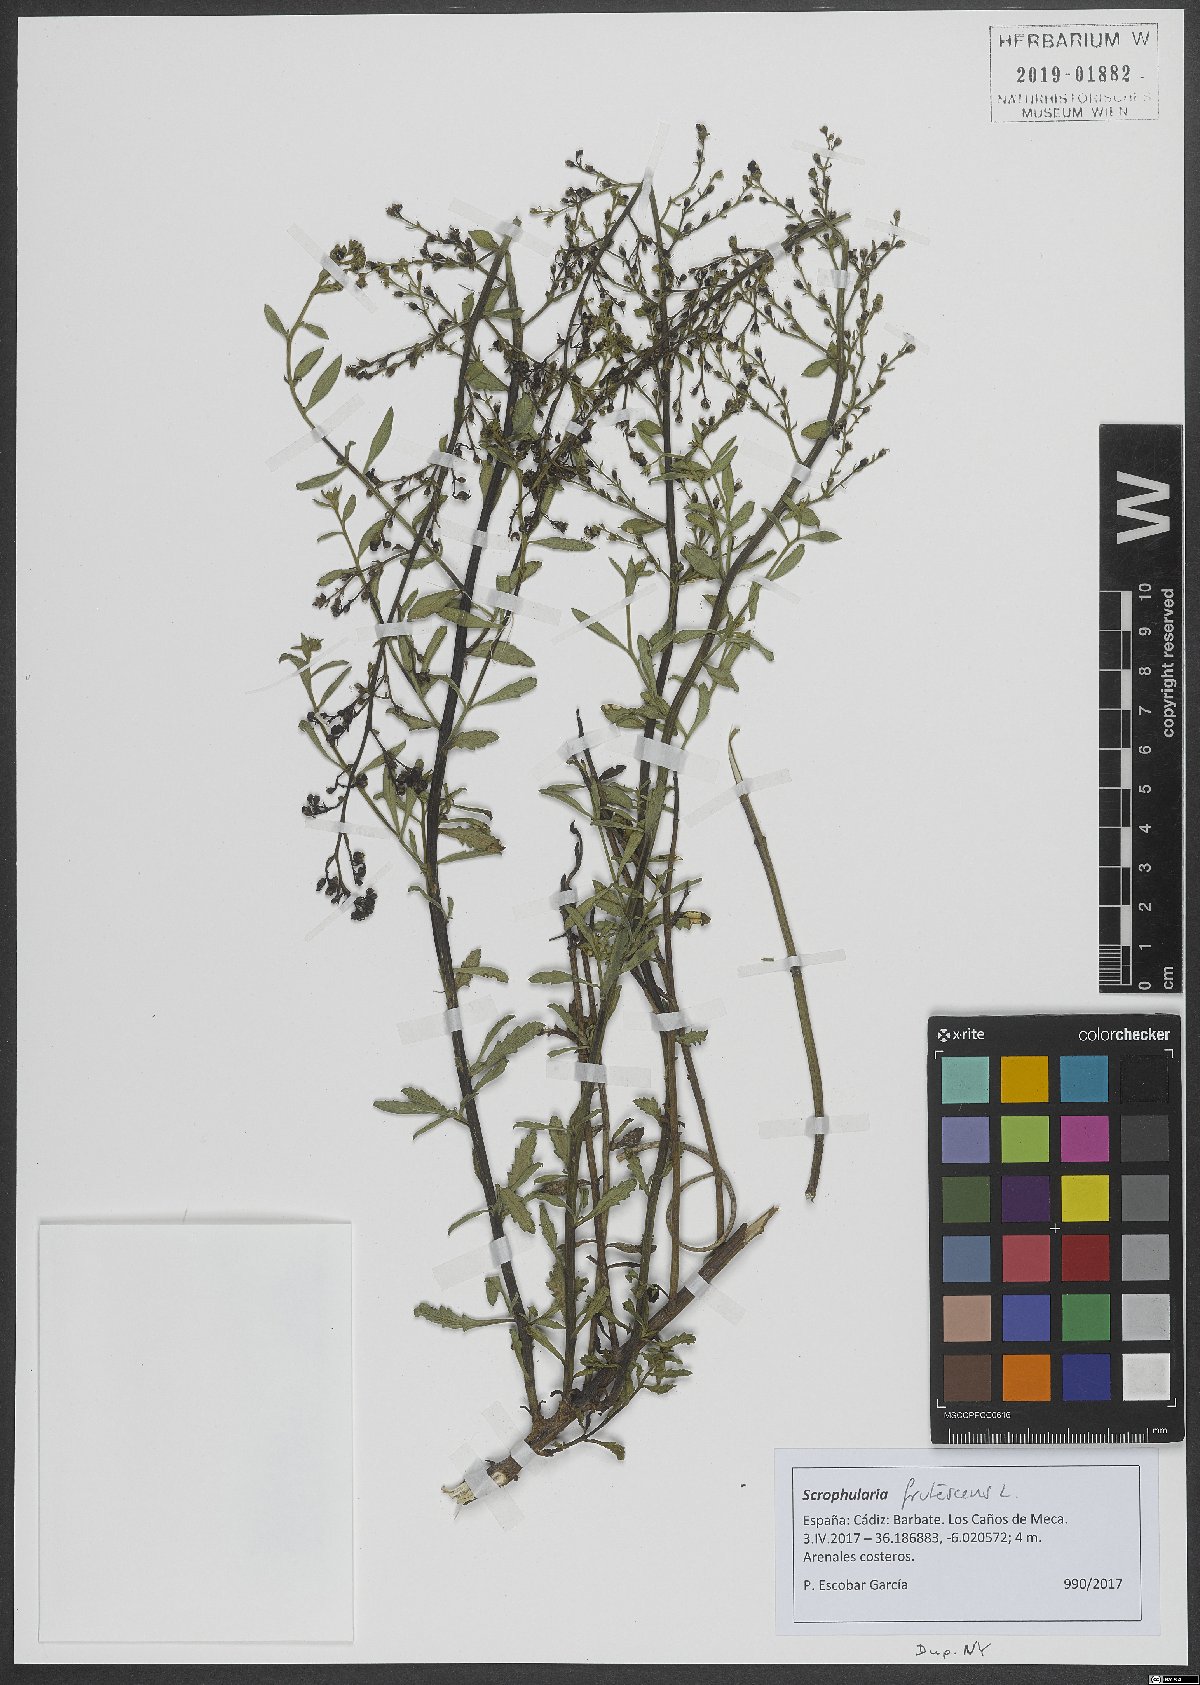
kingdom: Plantae
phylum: Tracheophyta
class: Magnoliopsida
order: Lamiales
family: Scrophulariaceae
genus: Scrophularia
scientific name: Scrophularia frutescens
